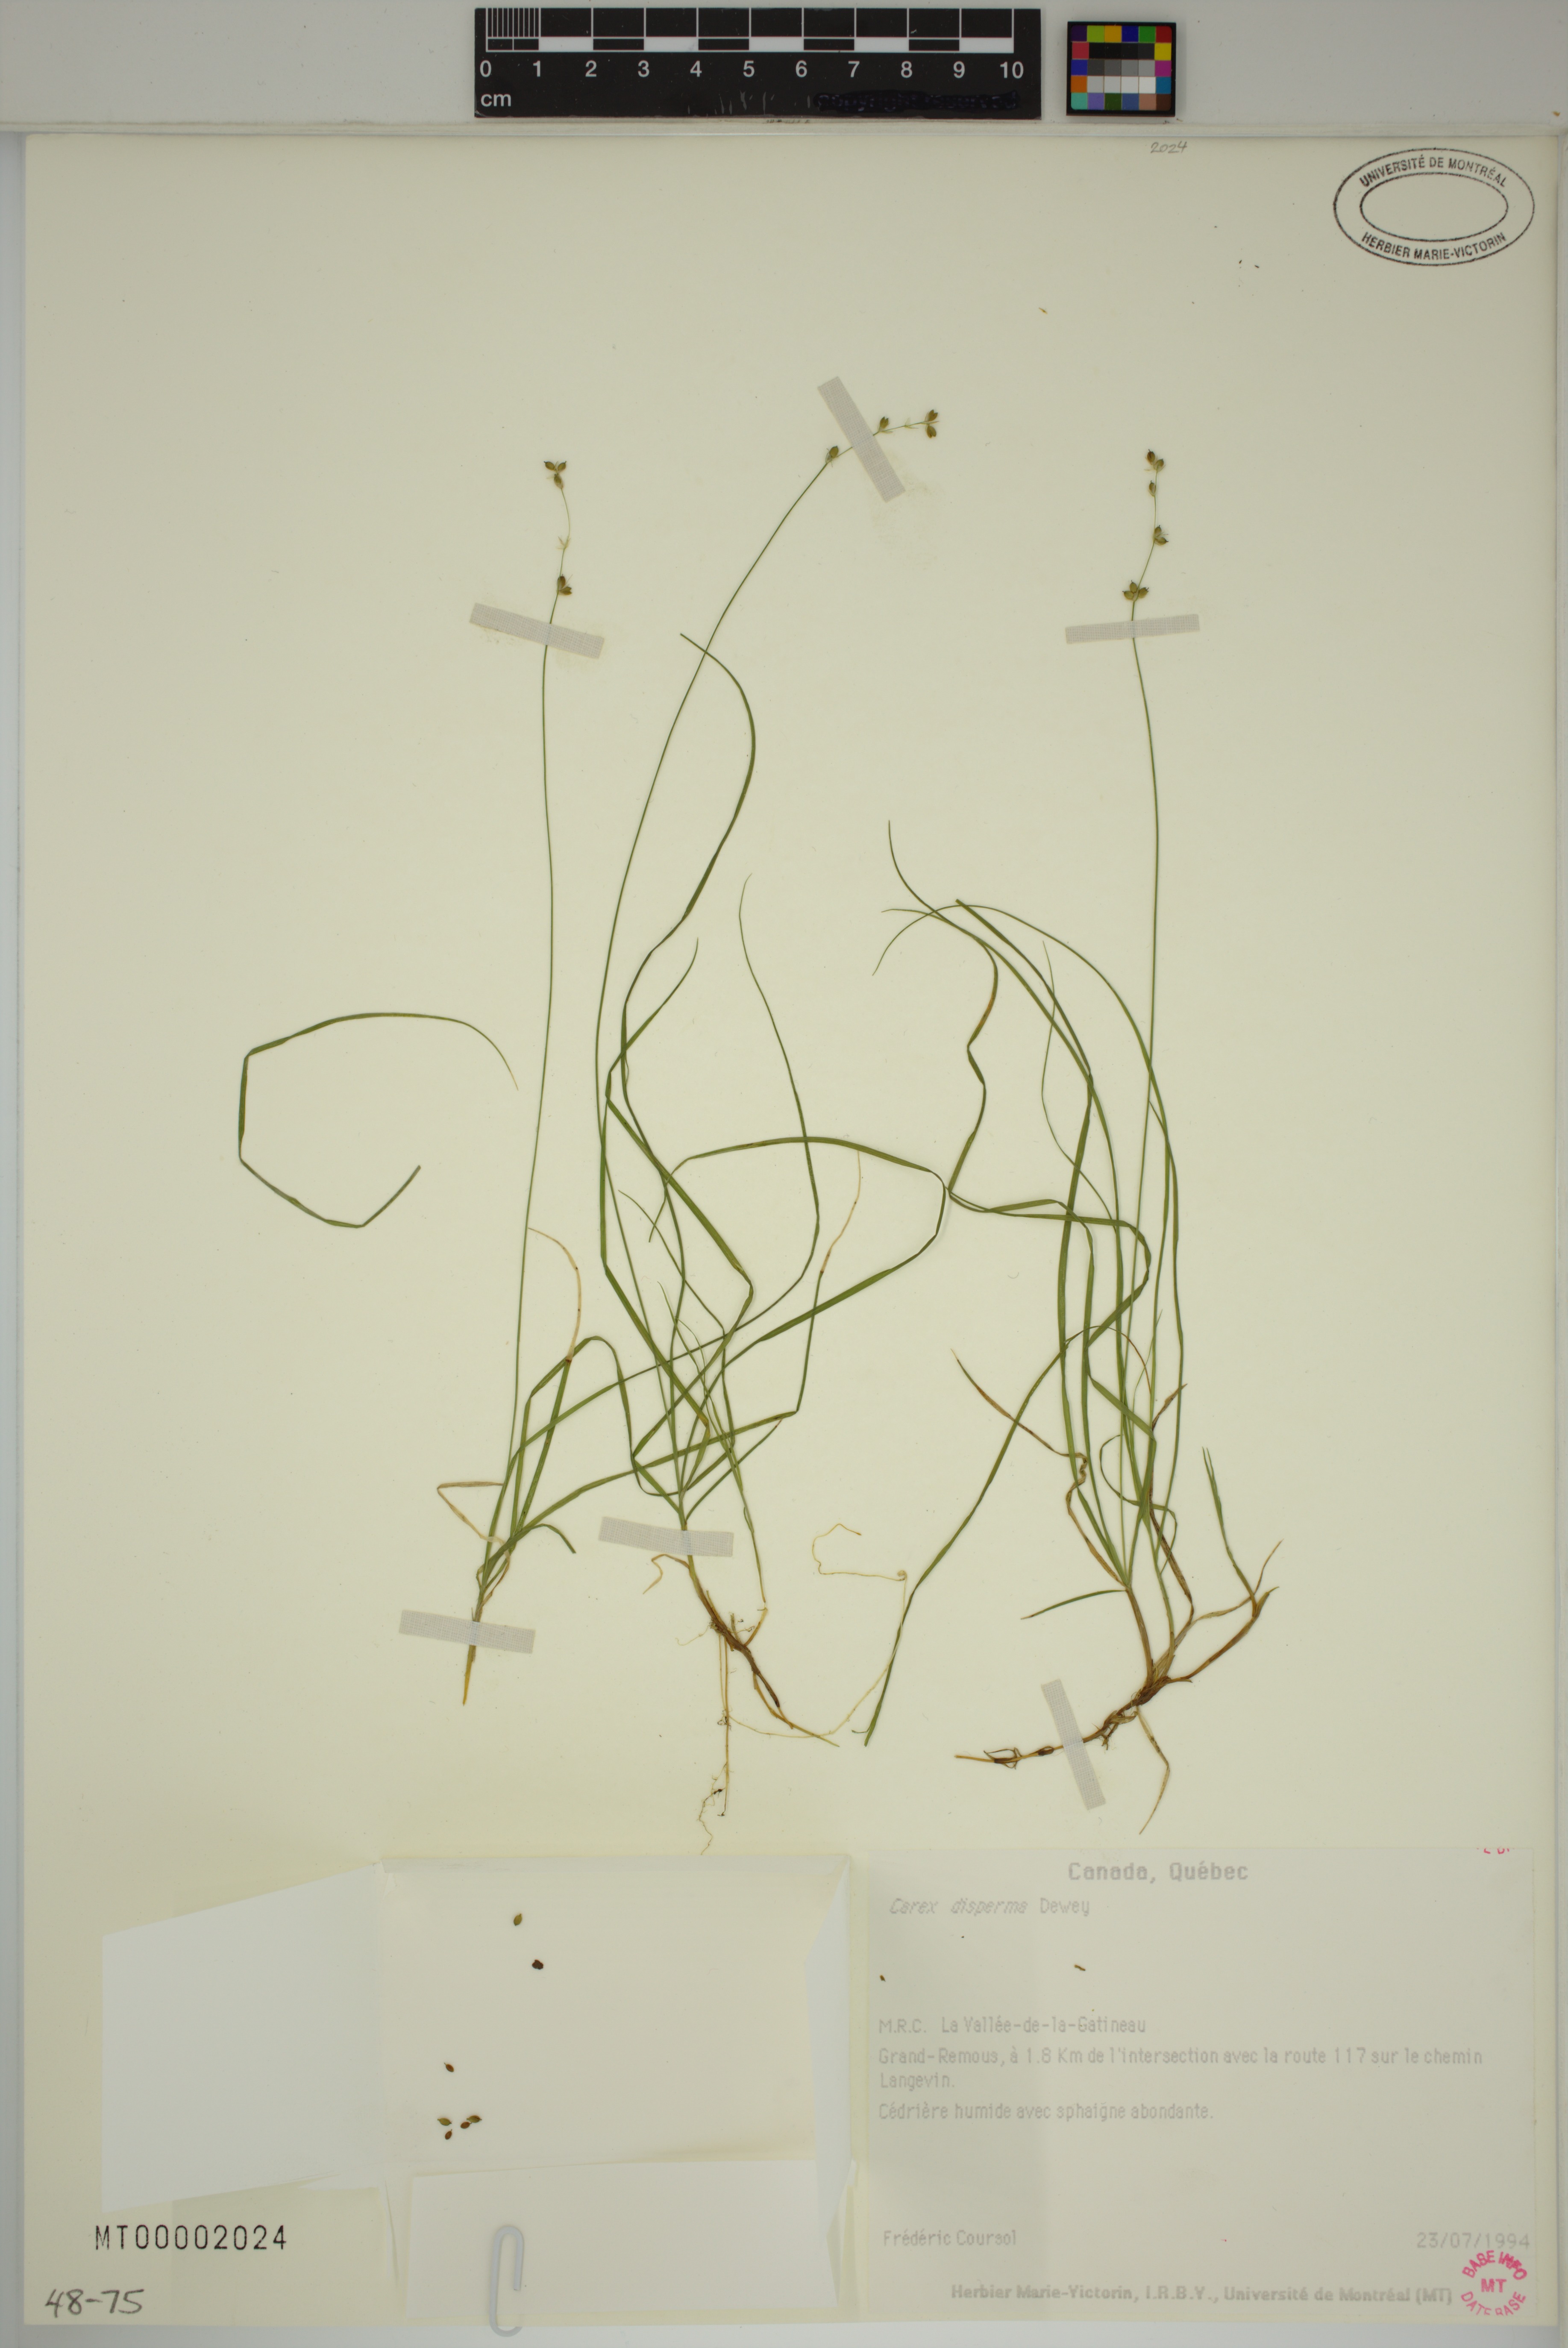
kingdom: Plantae
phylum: Tracheophyta
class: Liliopsida
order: Poales
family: Cyperaceae
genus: Carex
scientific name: Carex disperma
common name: Short-leaved sedge
